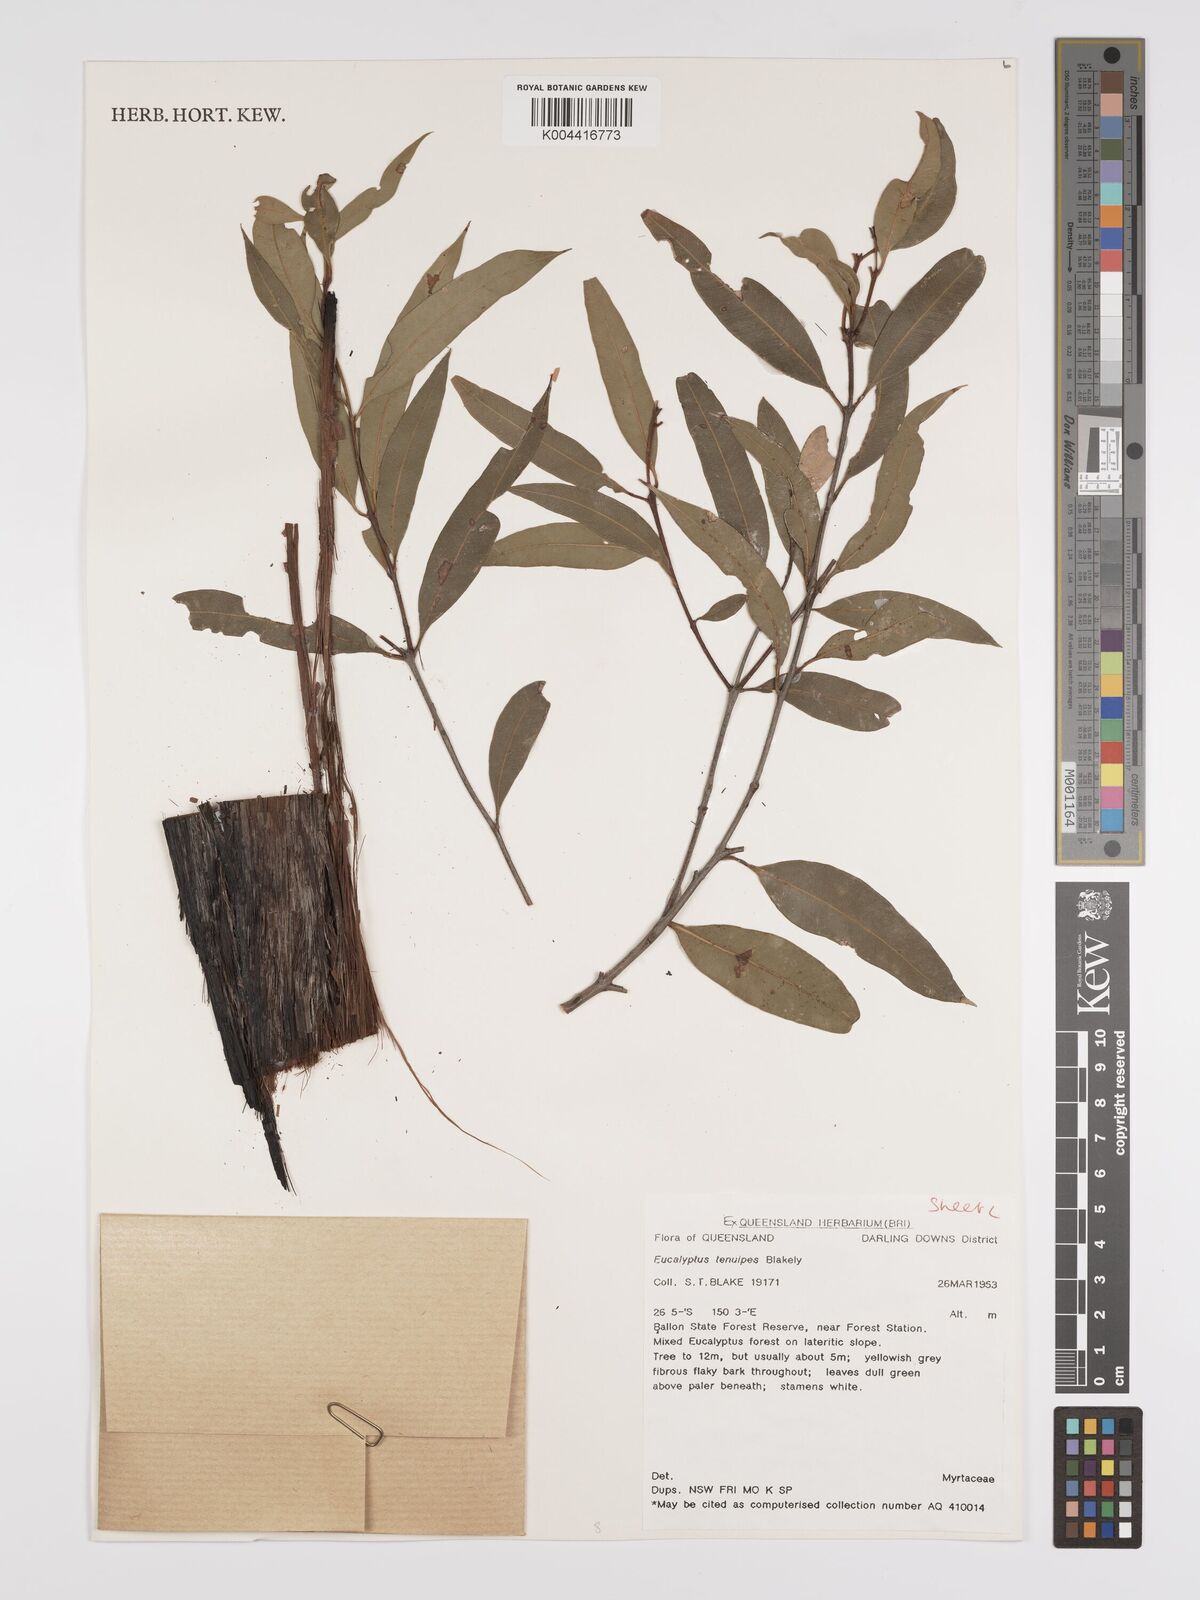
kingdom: Plantae
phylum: Tracheophyta
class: Magnoliopsida
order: Myrtales
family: Myrtaceae
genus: Eucalyptus
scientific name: Eucalyptus tenuipes
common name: Narrow-leaved white mahogany
